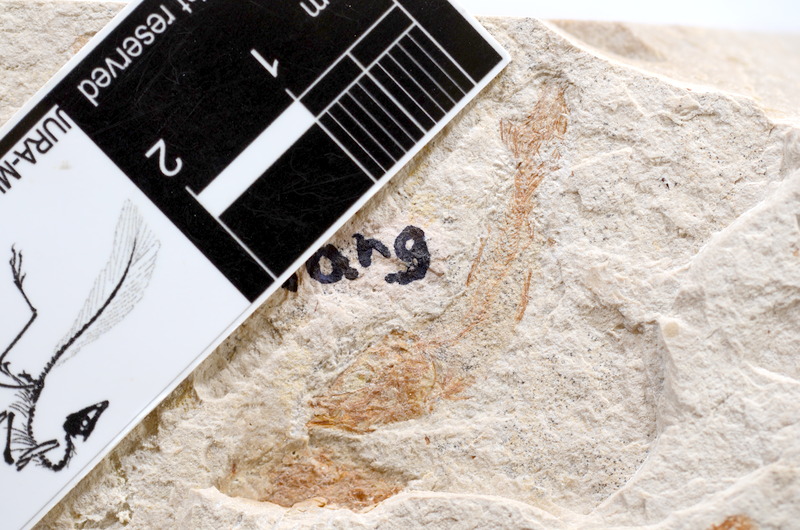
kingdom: Animalia
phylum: Chordata
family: Ascalaboidae
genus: Tharsis
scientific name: Tharsis dubius
